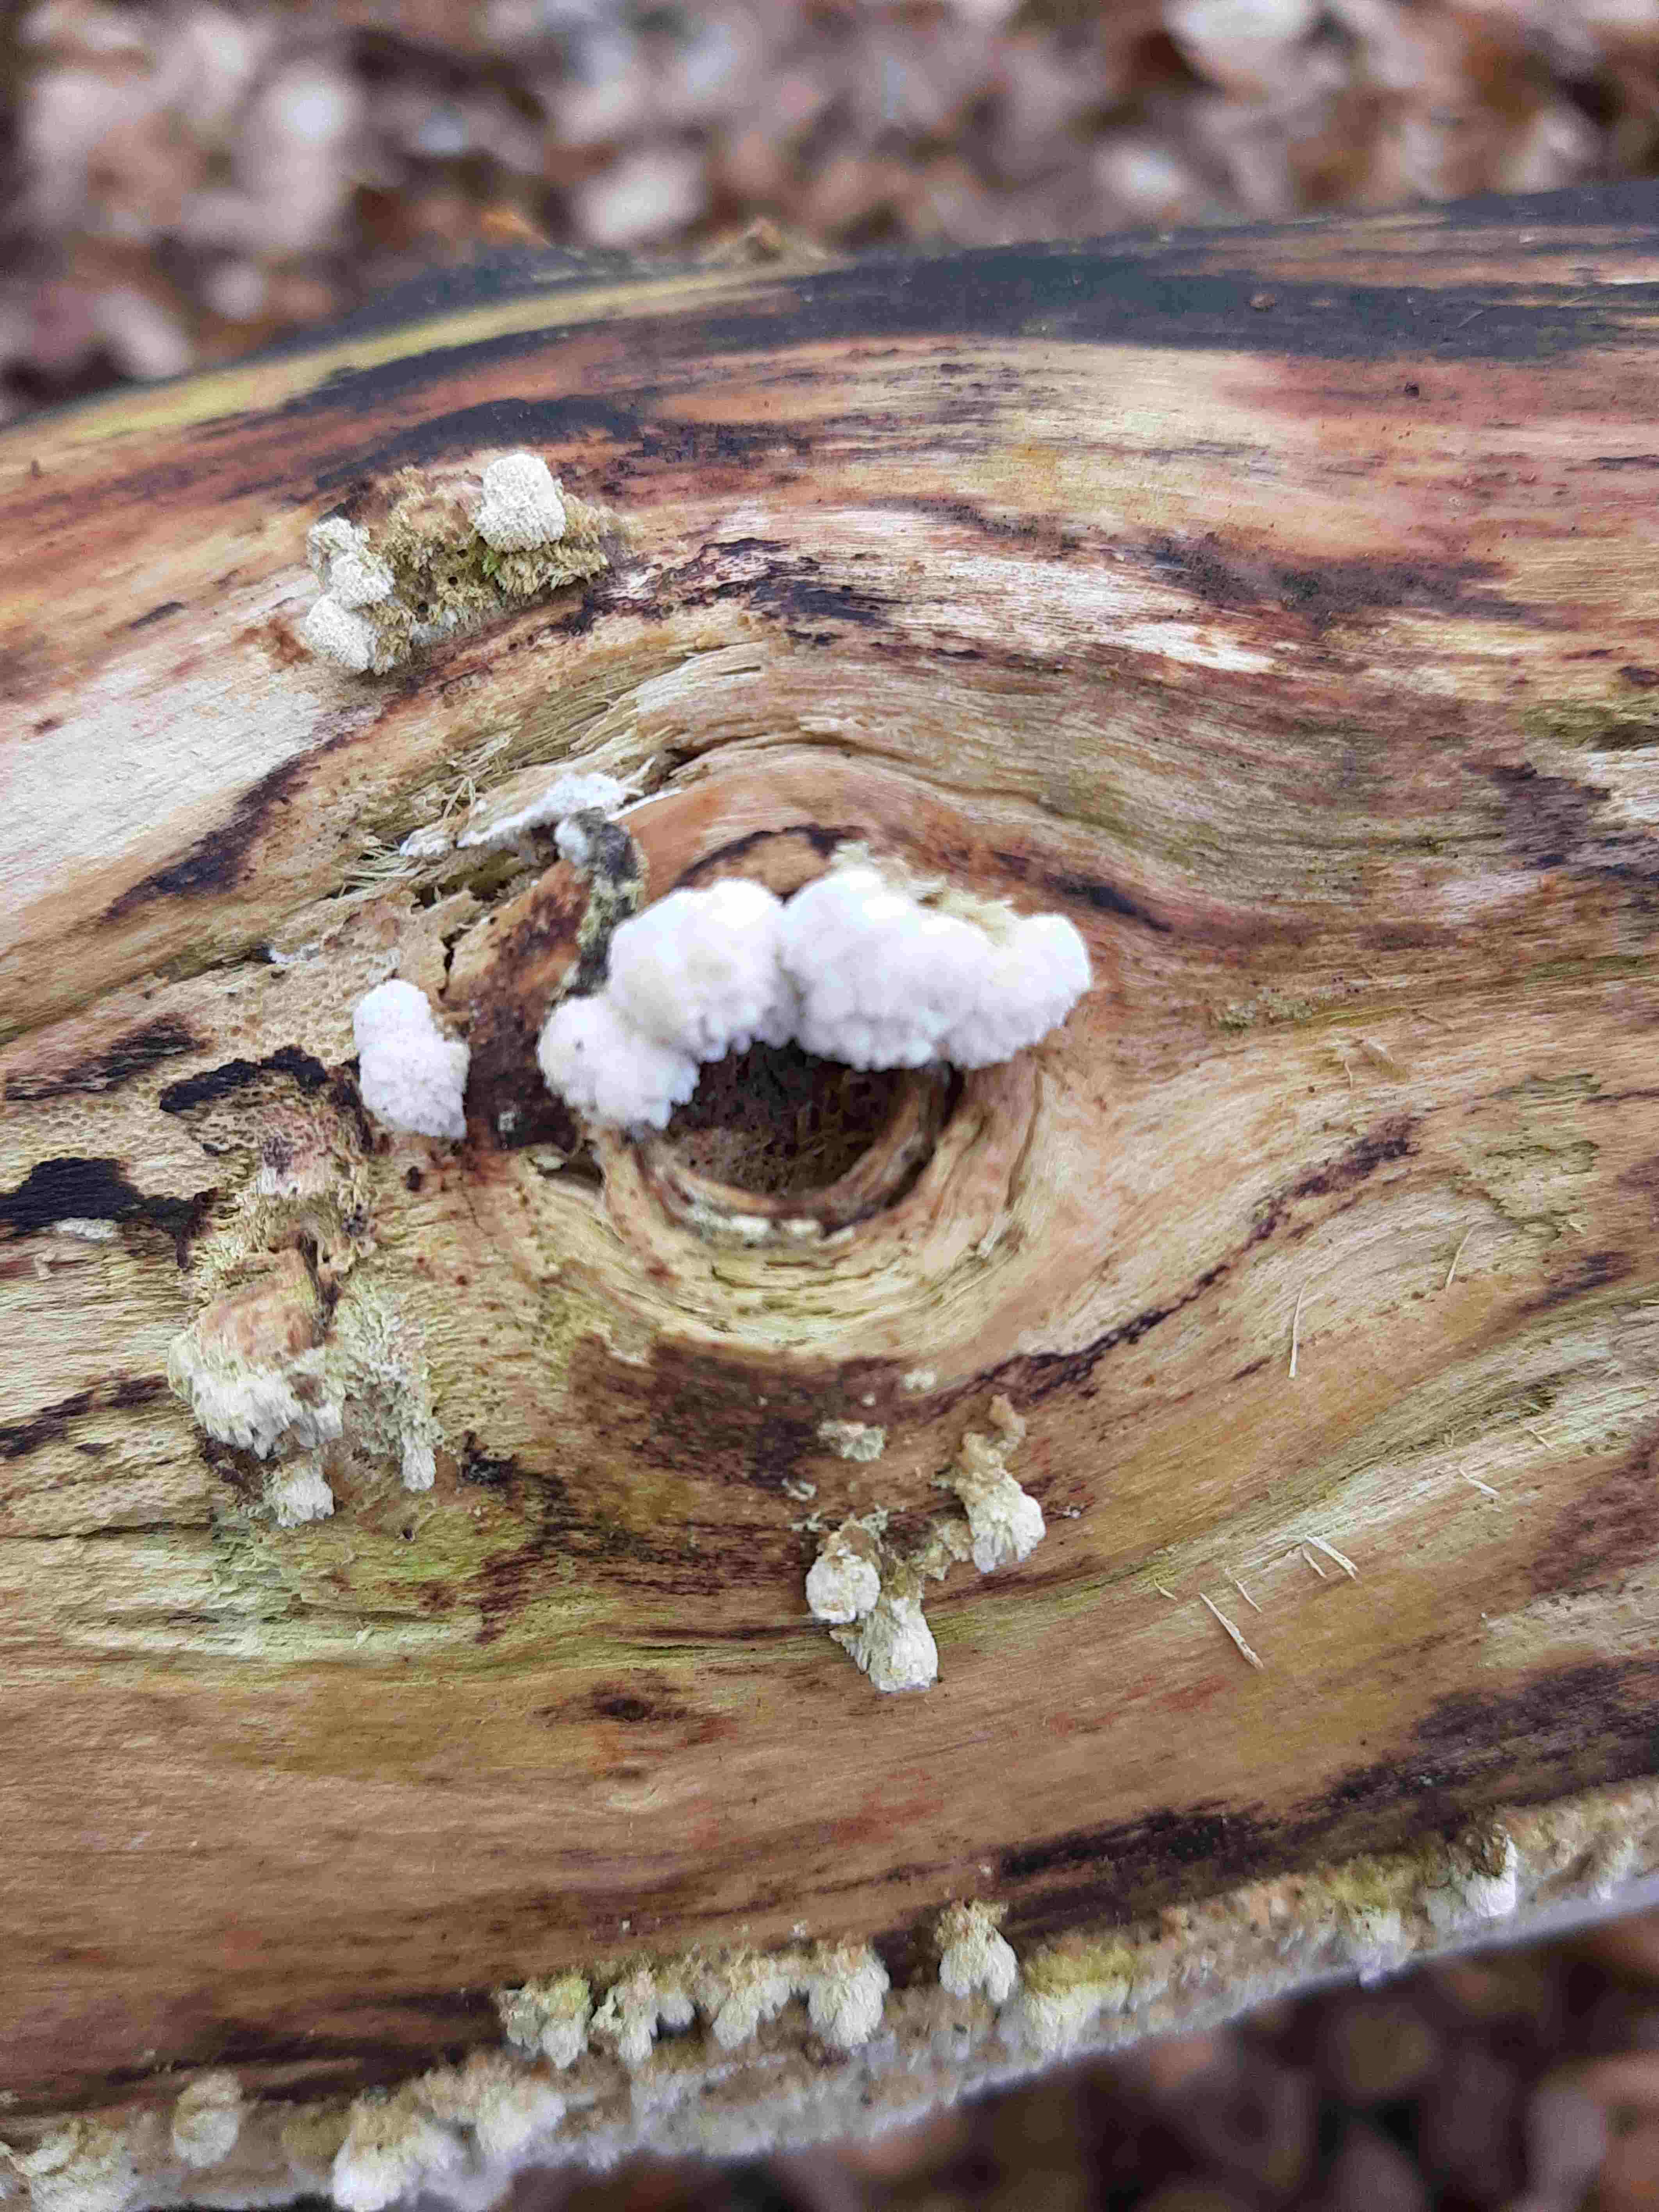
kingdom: Fungi
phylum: Basidiomycota
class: Agaricomycetes
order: Hymenochaetales
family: Schizoporaceae
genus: Schizopora
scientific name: Schizopora paradoxa
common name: hvid tandsvamp
